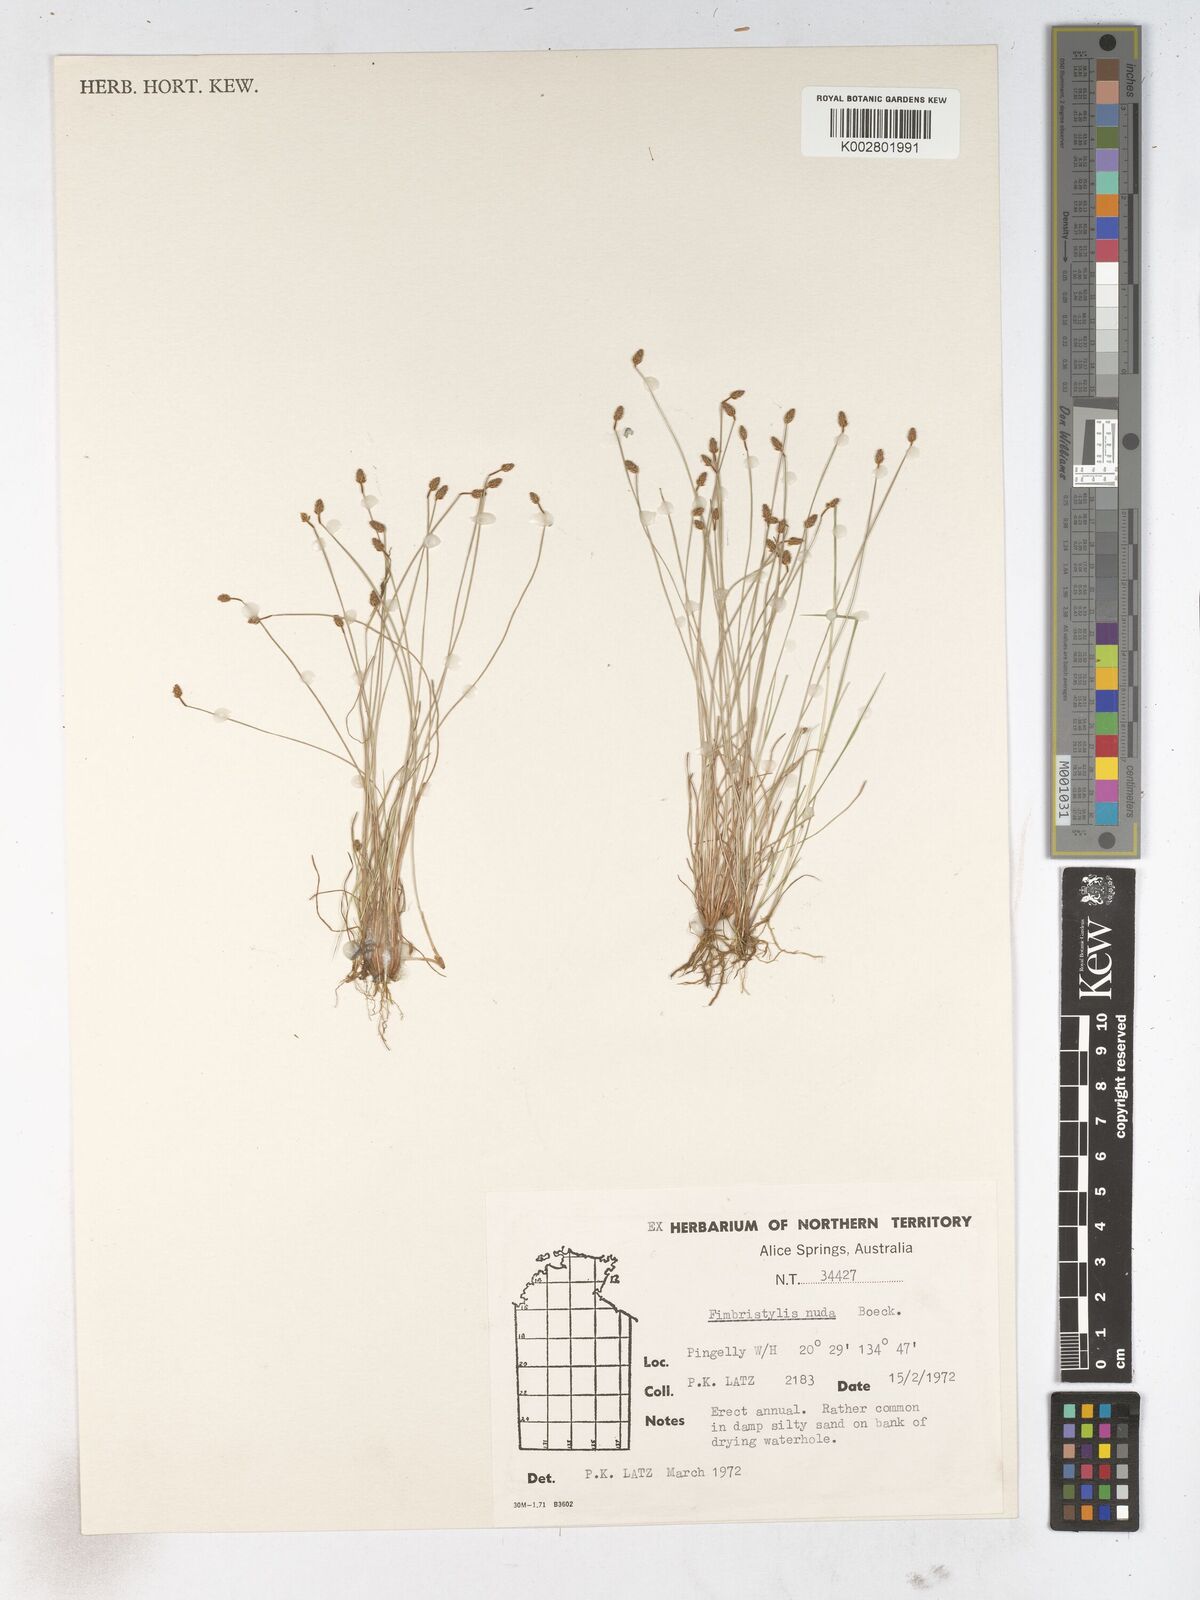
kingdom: Plantae
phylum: Tracheophyta
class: Liliopsida
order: Poales
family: Cyperaceae
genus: Fimbristylis
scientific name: Fimbristylis nuda
